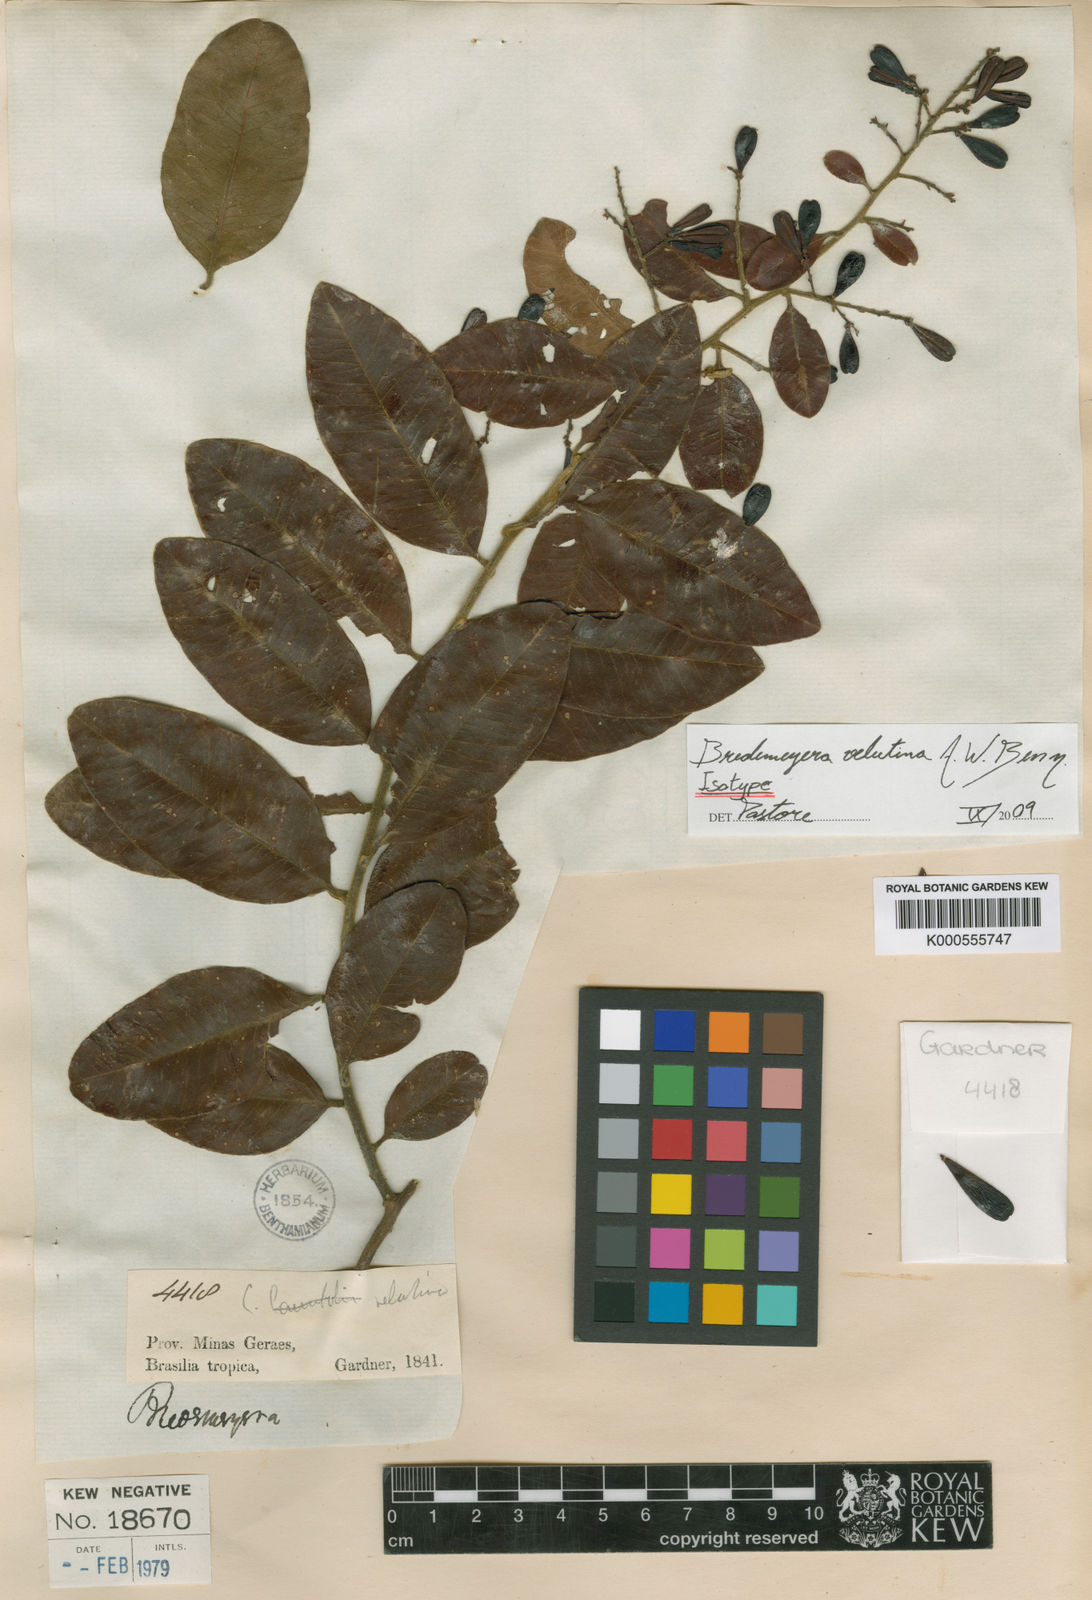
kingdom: Plantae
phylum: Tracheophyta
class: Magnoliopsida
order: Fabales
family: Polygalaceae
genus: Bredemeyera
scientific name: Bredemeyera hebeclada
